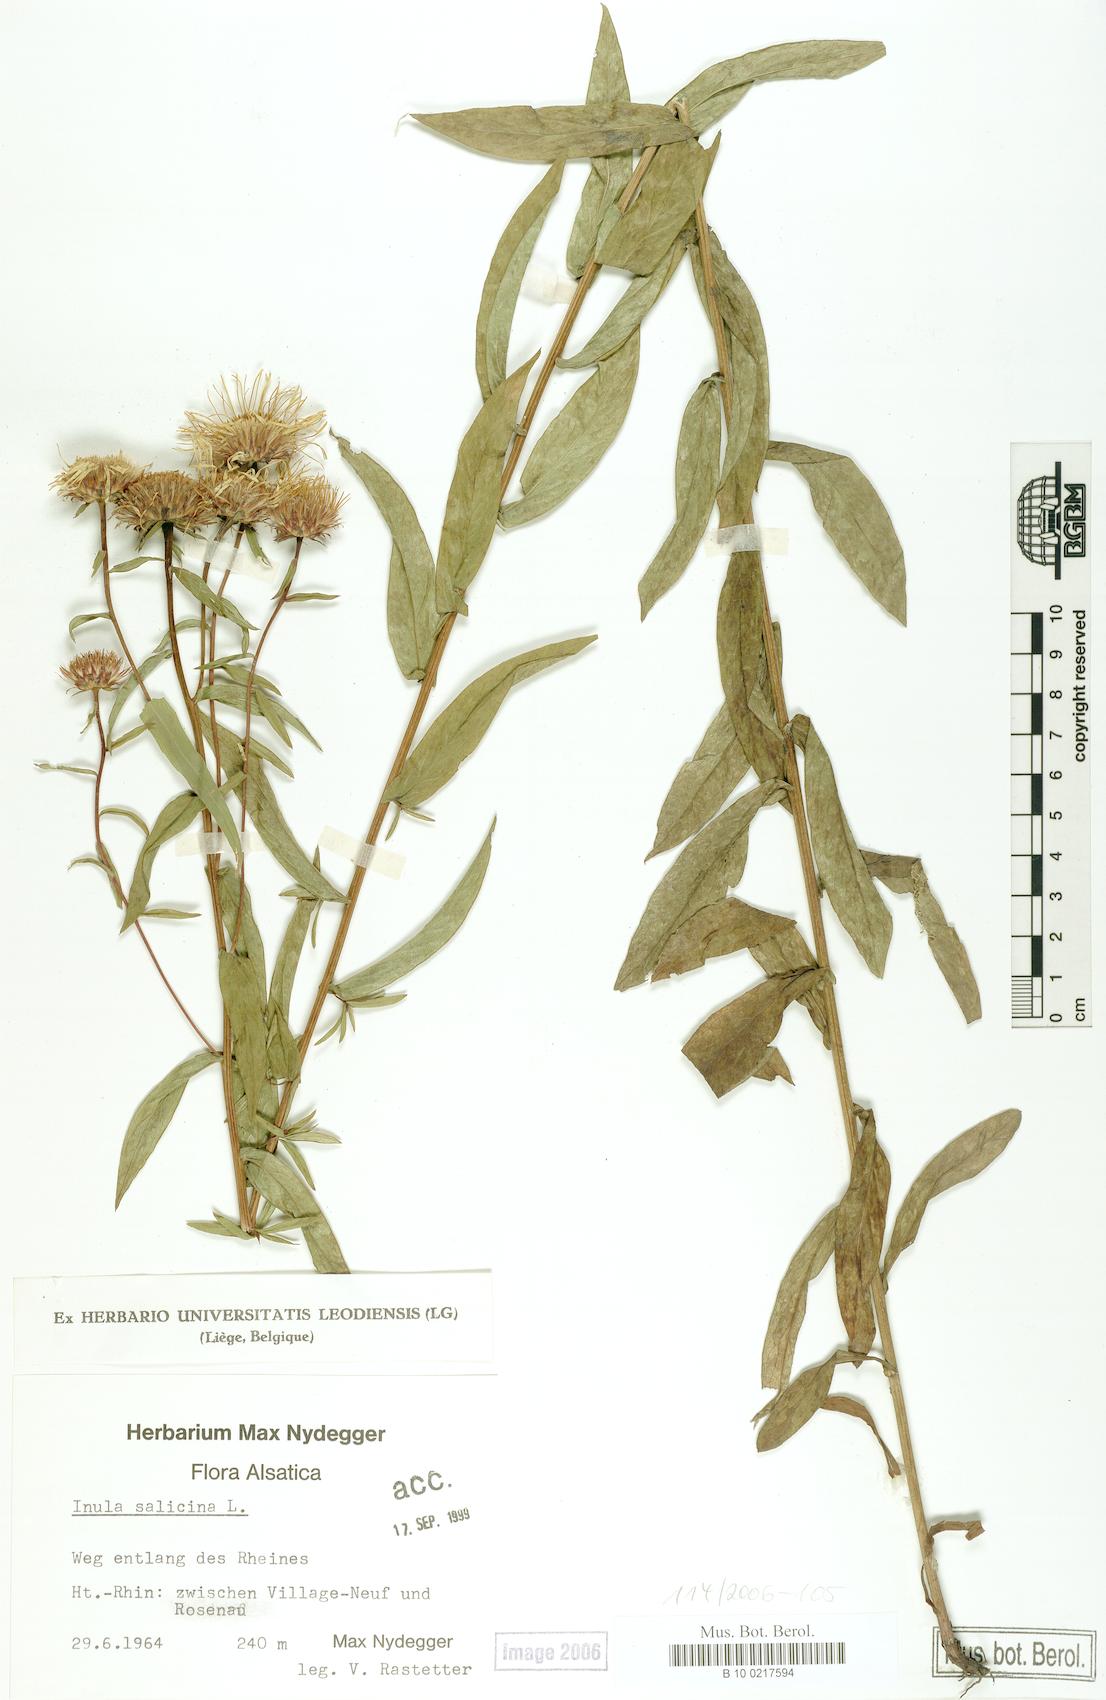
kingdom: Plantae
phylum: Tracheophyta
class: Magnoliopsida
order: Asterales
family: Asteraceae
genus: Pentanema
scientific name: Pentanema salicinum
